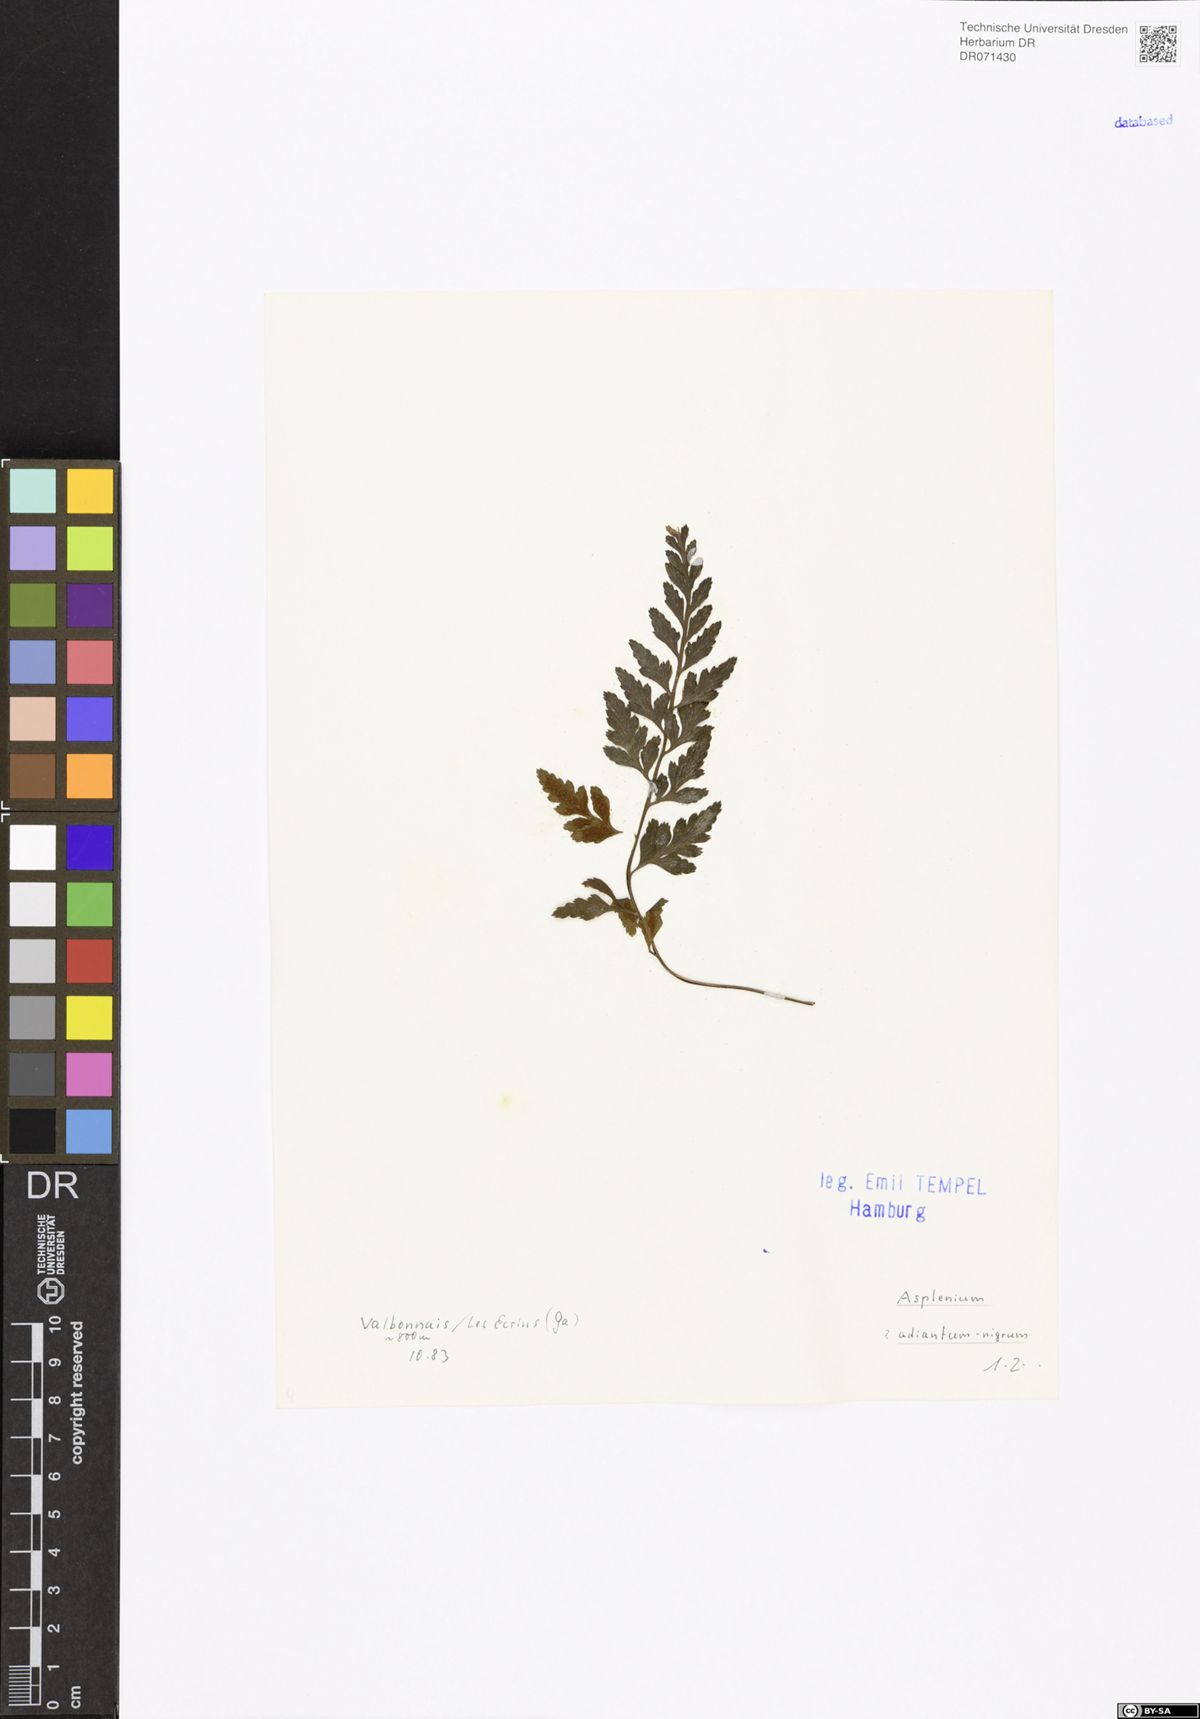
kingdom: Plantae
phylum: Tracheophyta
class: Polypodiopsida
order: Polypodiales
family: Aspleniaceae
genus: Asplenium
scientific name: Asplenium adiantum-nigrum
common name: Black spleenwort
